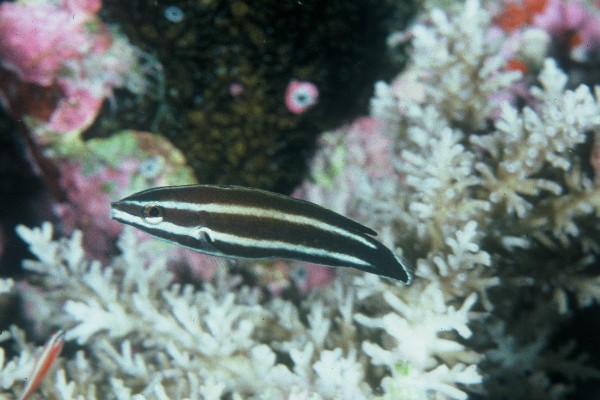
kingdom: Animalia
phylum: Chordata
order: Perciformes
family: Labridae
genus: Labropsis
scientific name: Labropsis manabei
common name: Northern tubelip
